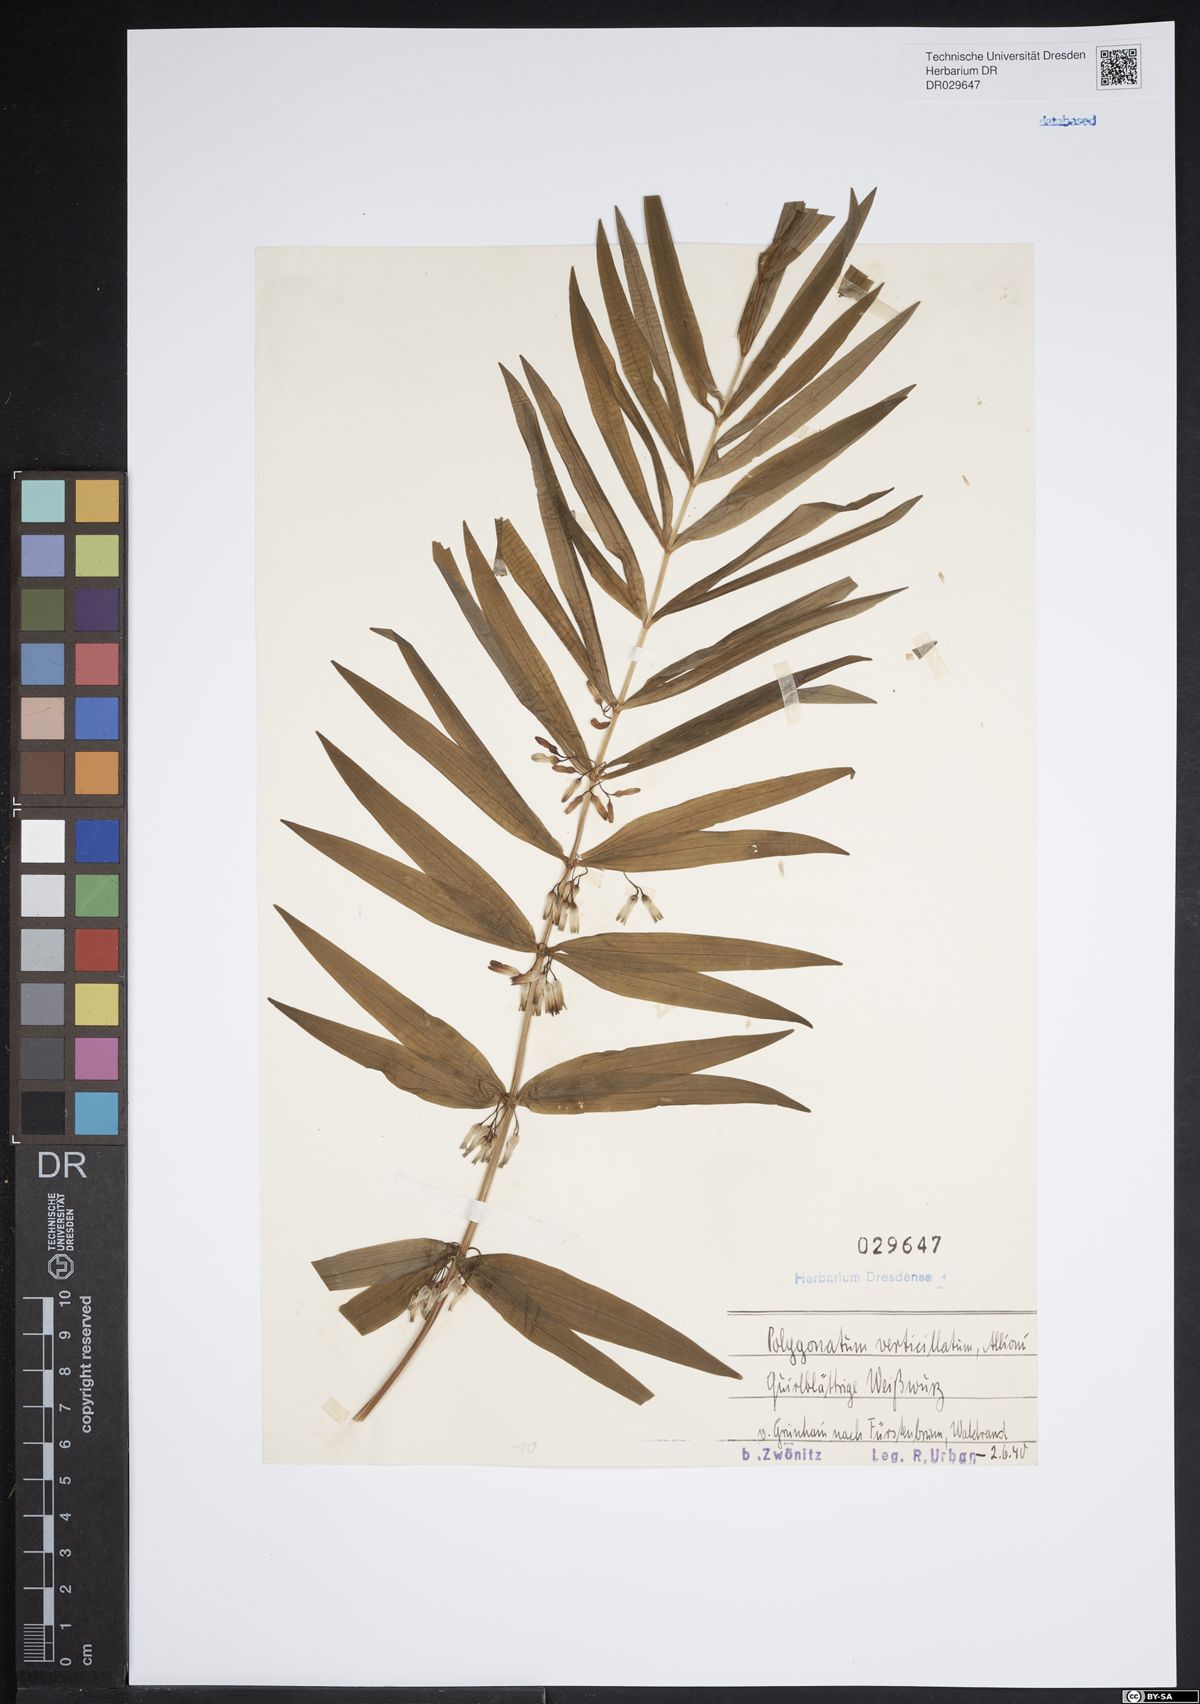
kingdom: Plantae
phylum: Tracheophyta
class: Liliopsida
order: Asparagales
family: Asparagaceae
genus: Polygonatum
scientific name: Polygonatum verticillatum
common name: Whorled solomon's-seal
